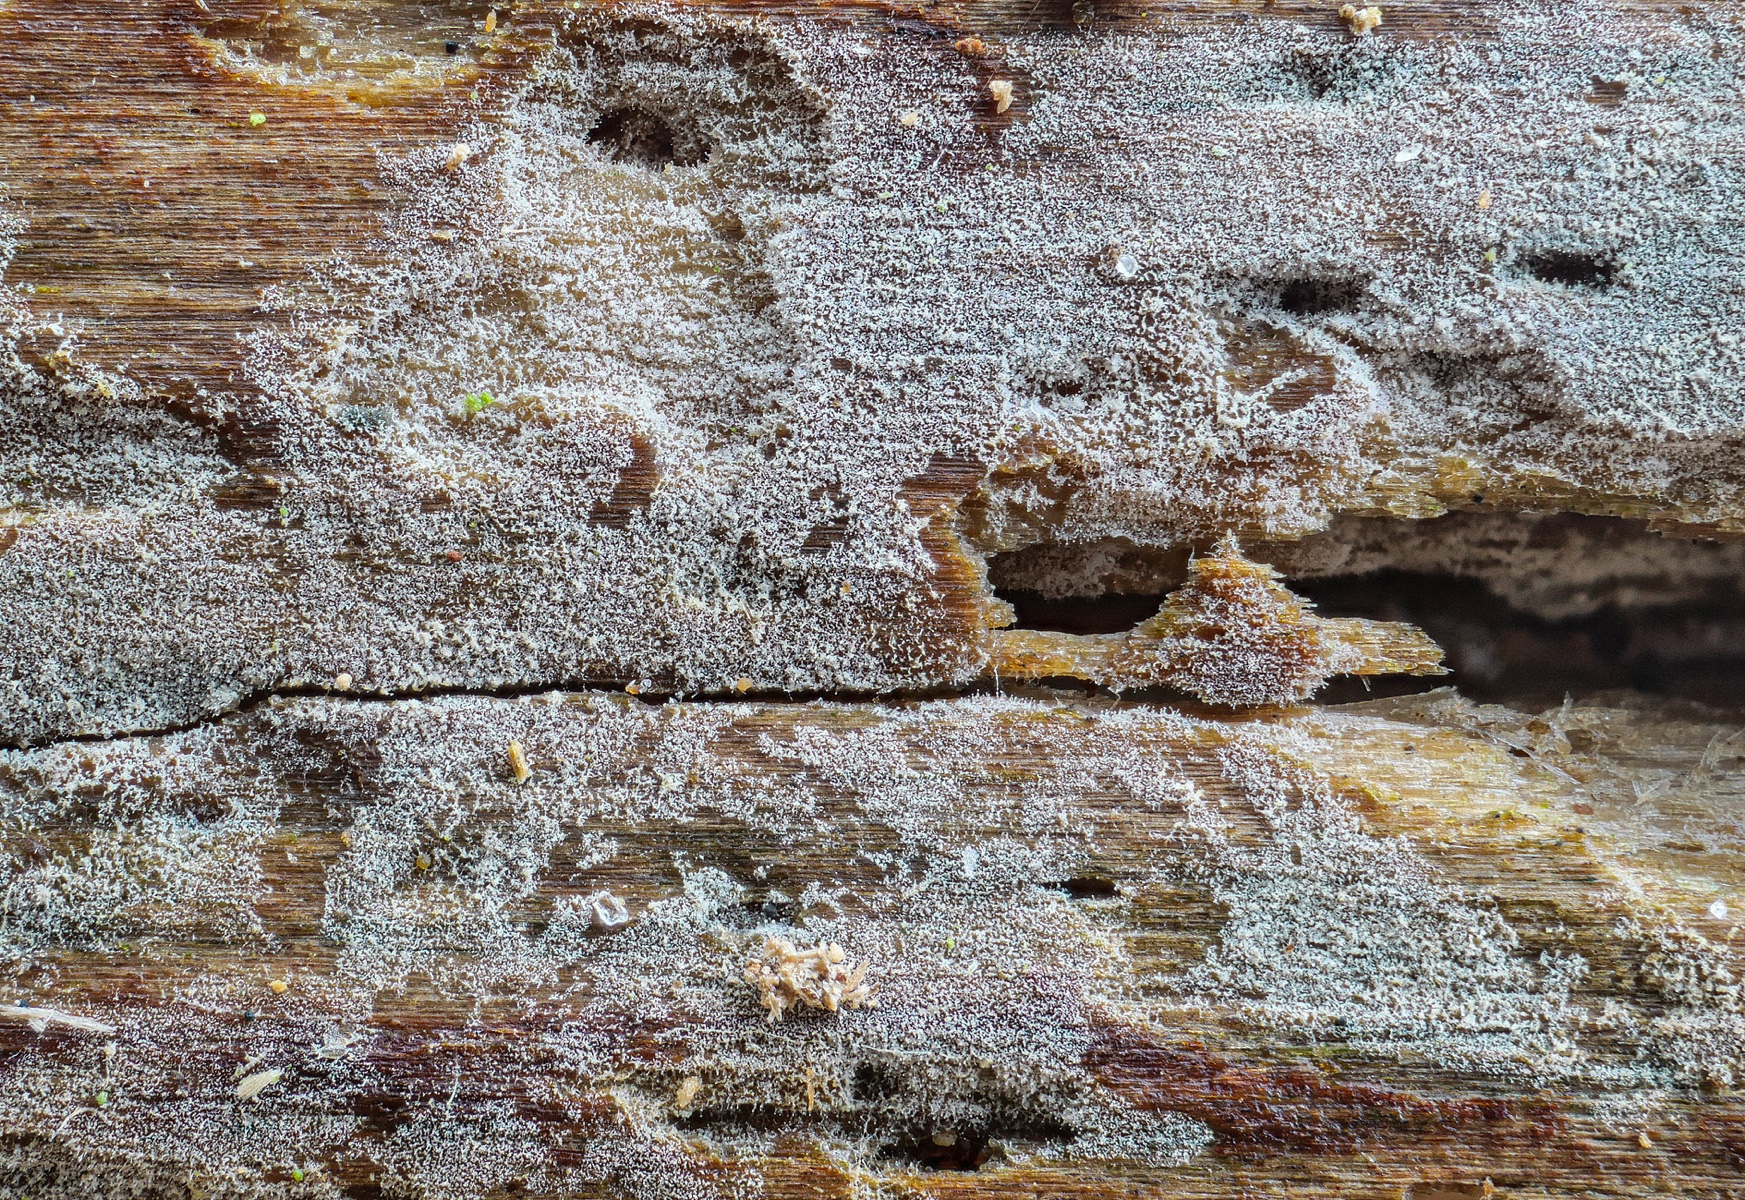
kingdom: Fungi
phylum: Basidiomycota
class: Agaricomycetes
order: Hymenochaetales
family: Hymenochaetaceae
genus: Tubulicrinis
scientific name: Tubulicrinis thermometrus
